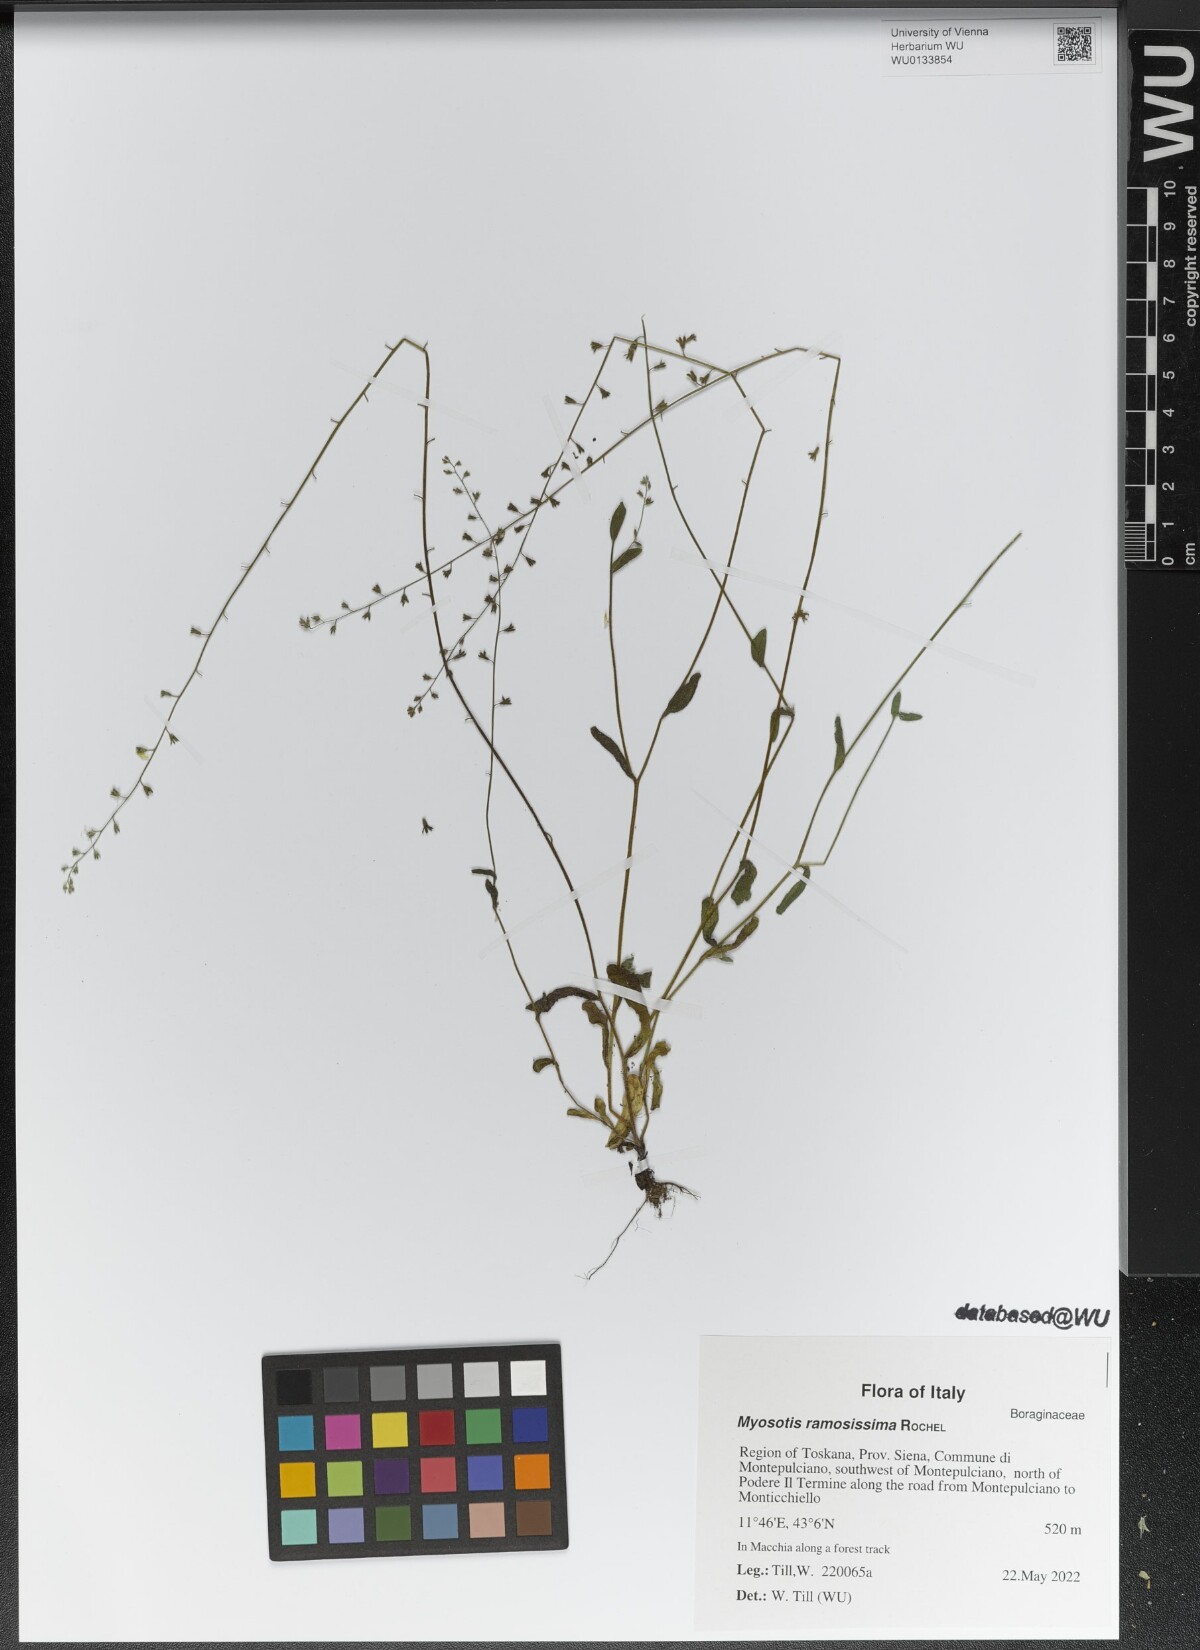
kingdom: Plantae
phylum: Tracheophyta
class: Magnoliopsida
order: Boraginales
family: Boraginaceae
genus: Myosotis
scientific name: Myosotis ramosissima
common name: Early forget-me-not
